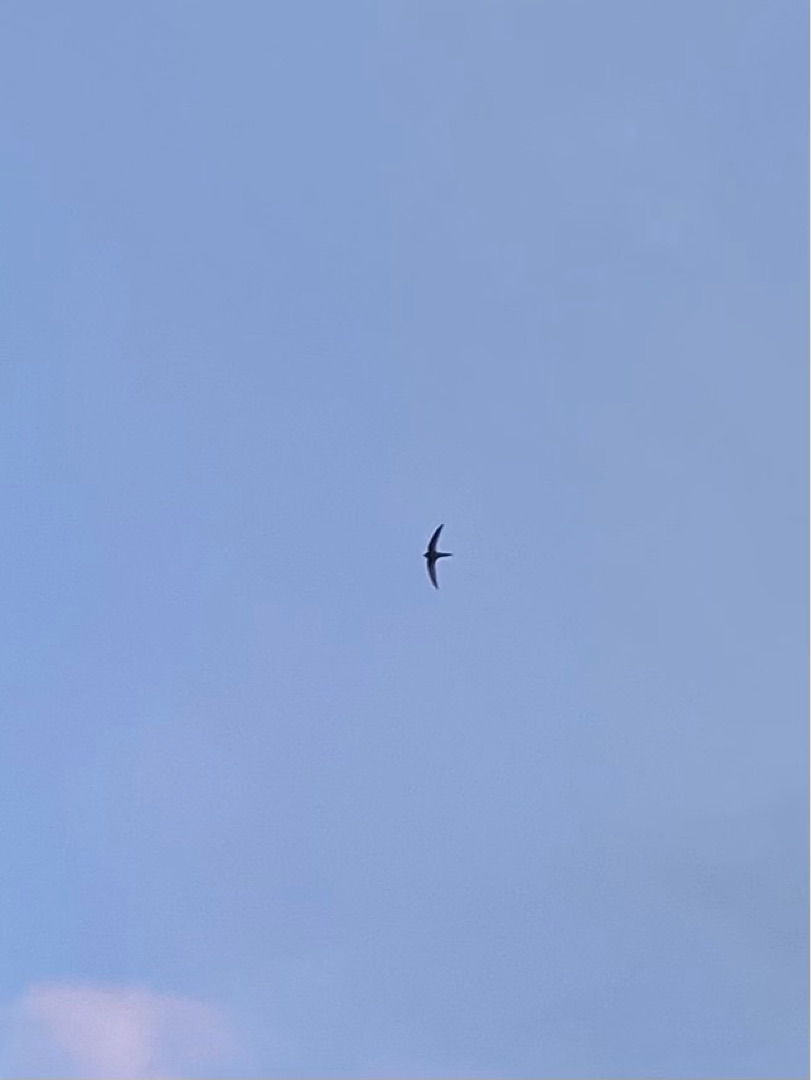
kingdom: Animalia
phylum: Chordata
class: Aves
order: Apodiformes
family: Apodidae
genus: Apus
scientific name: Apus apus
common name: Mursejler
